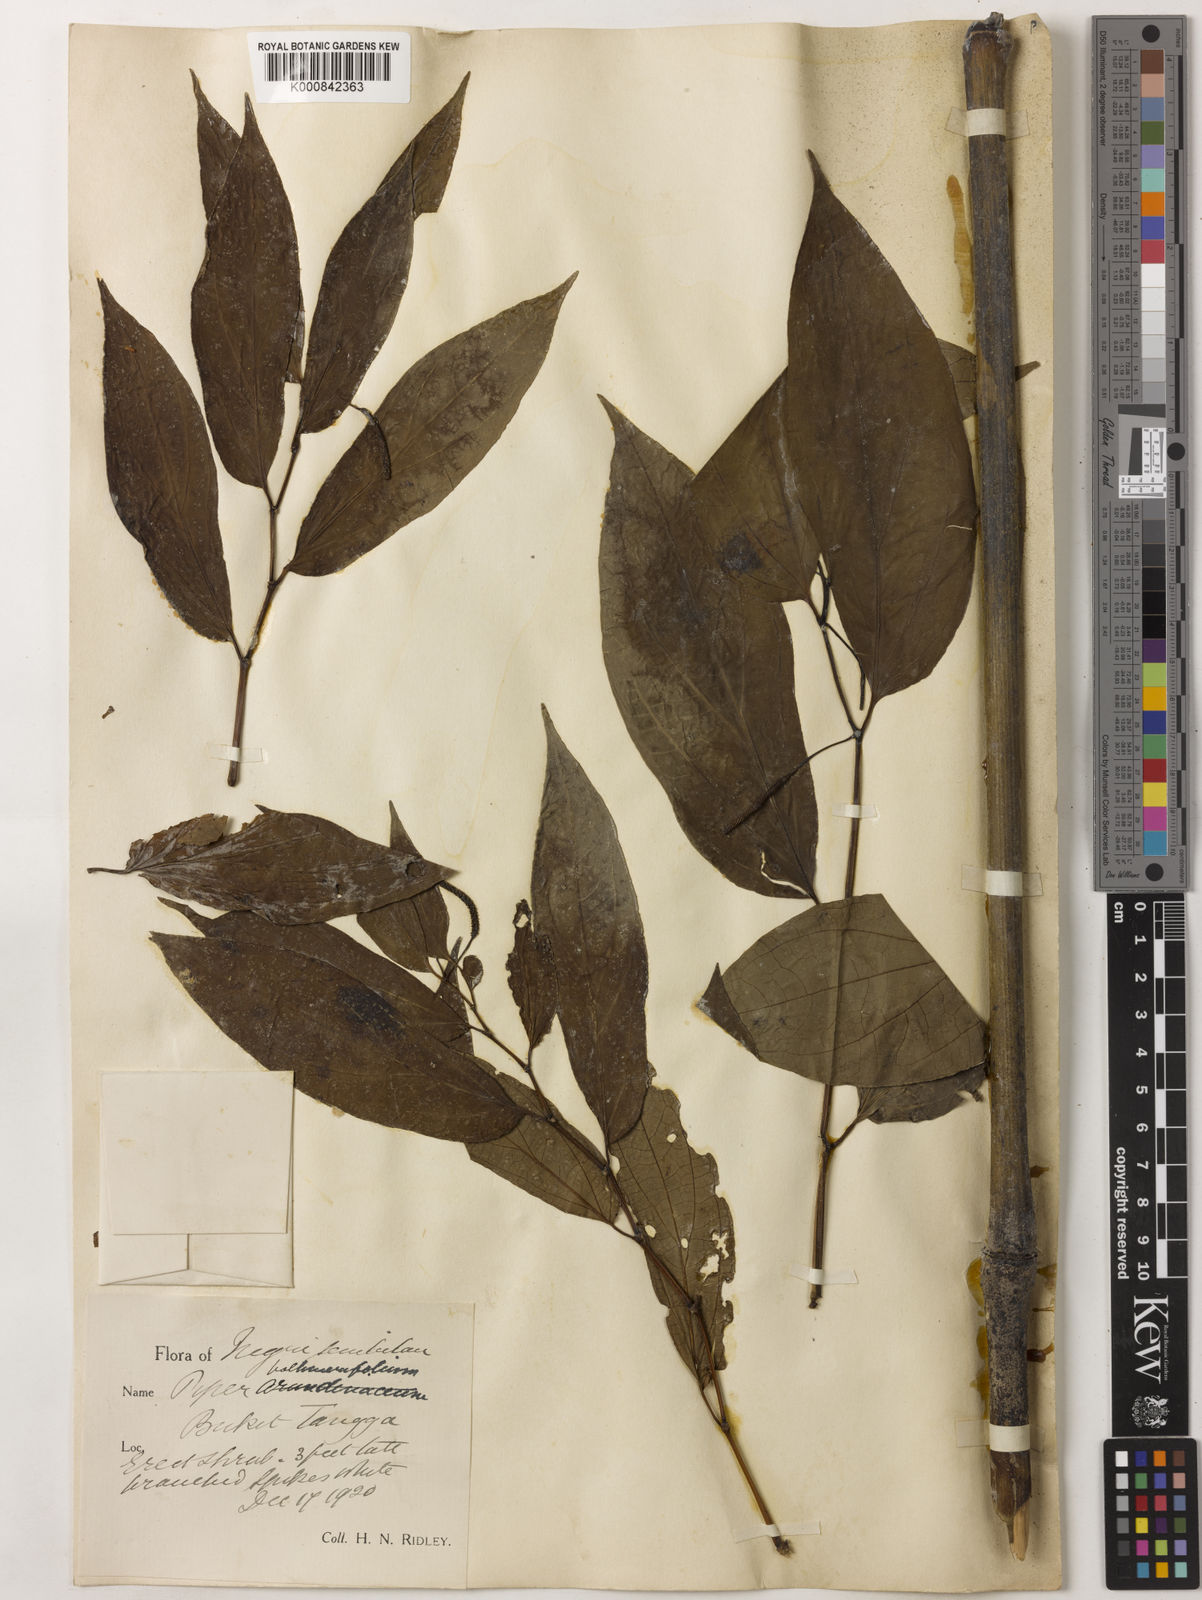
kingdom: Plantae
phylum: Tracheophyta
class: Magnoliopsida
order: Piperales
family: Piperaceae
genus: Piper
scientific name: Piper boehmeriifolium
